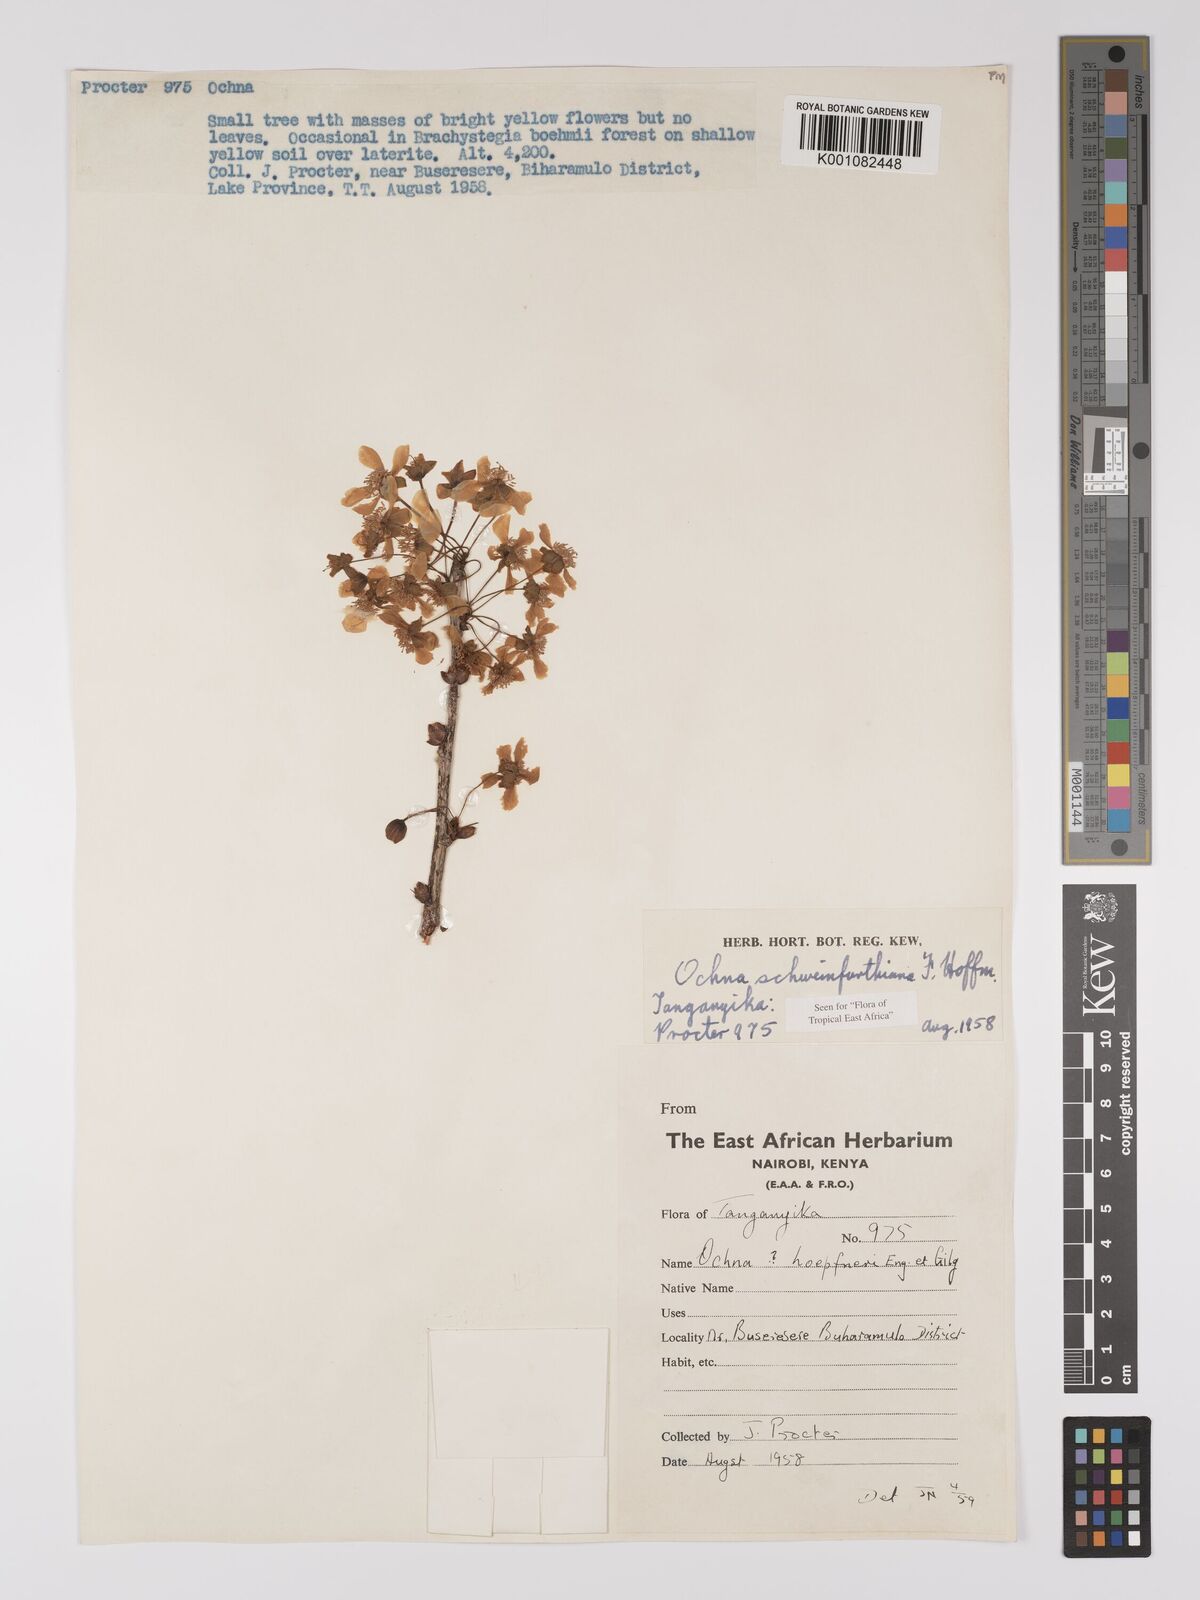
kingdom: Plantae
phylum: Tracheophyta
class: Magnoliopsida
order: Malpighiales
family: Ochnaceae
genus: Ochna
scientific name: Ochna schweinfurthiana
